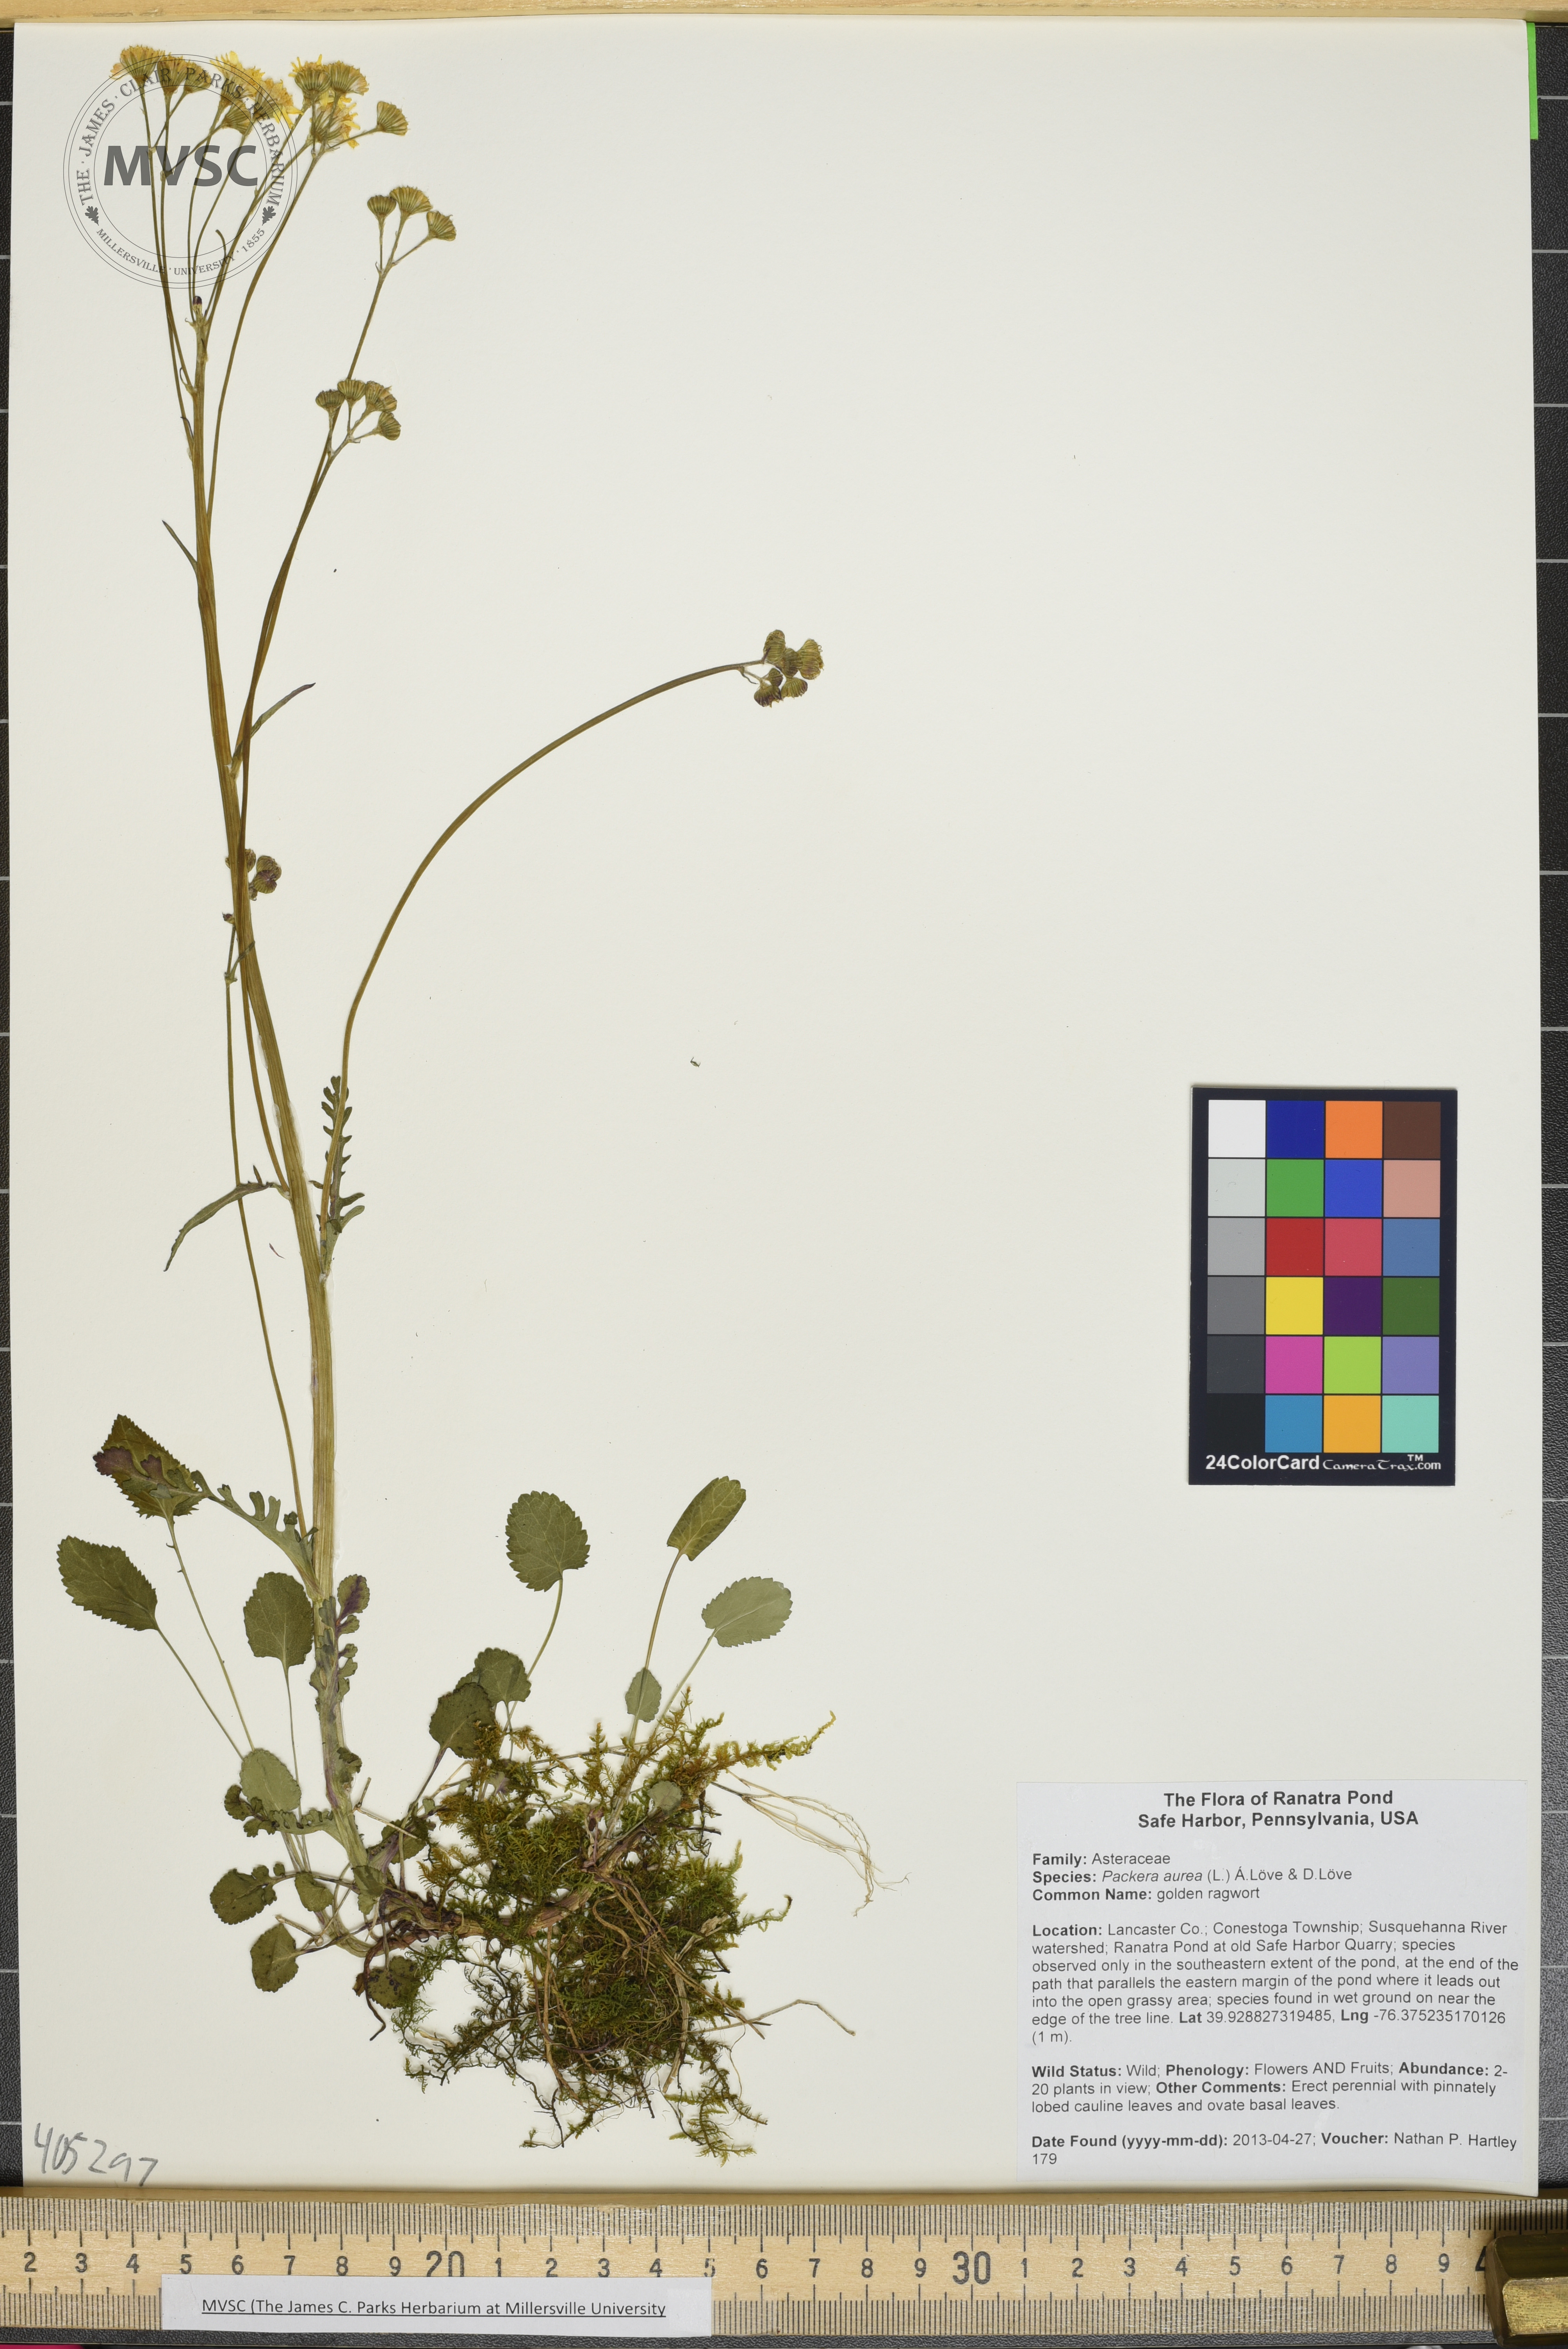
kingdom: Plantae
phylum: Tracheophyta
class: Magnoliopsida
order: Asterales
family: Asteraceae
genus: Packera
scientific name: Packera aurea
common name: golden ragwort
